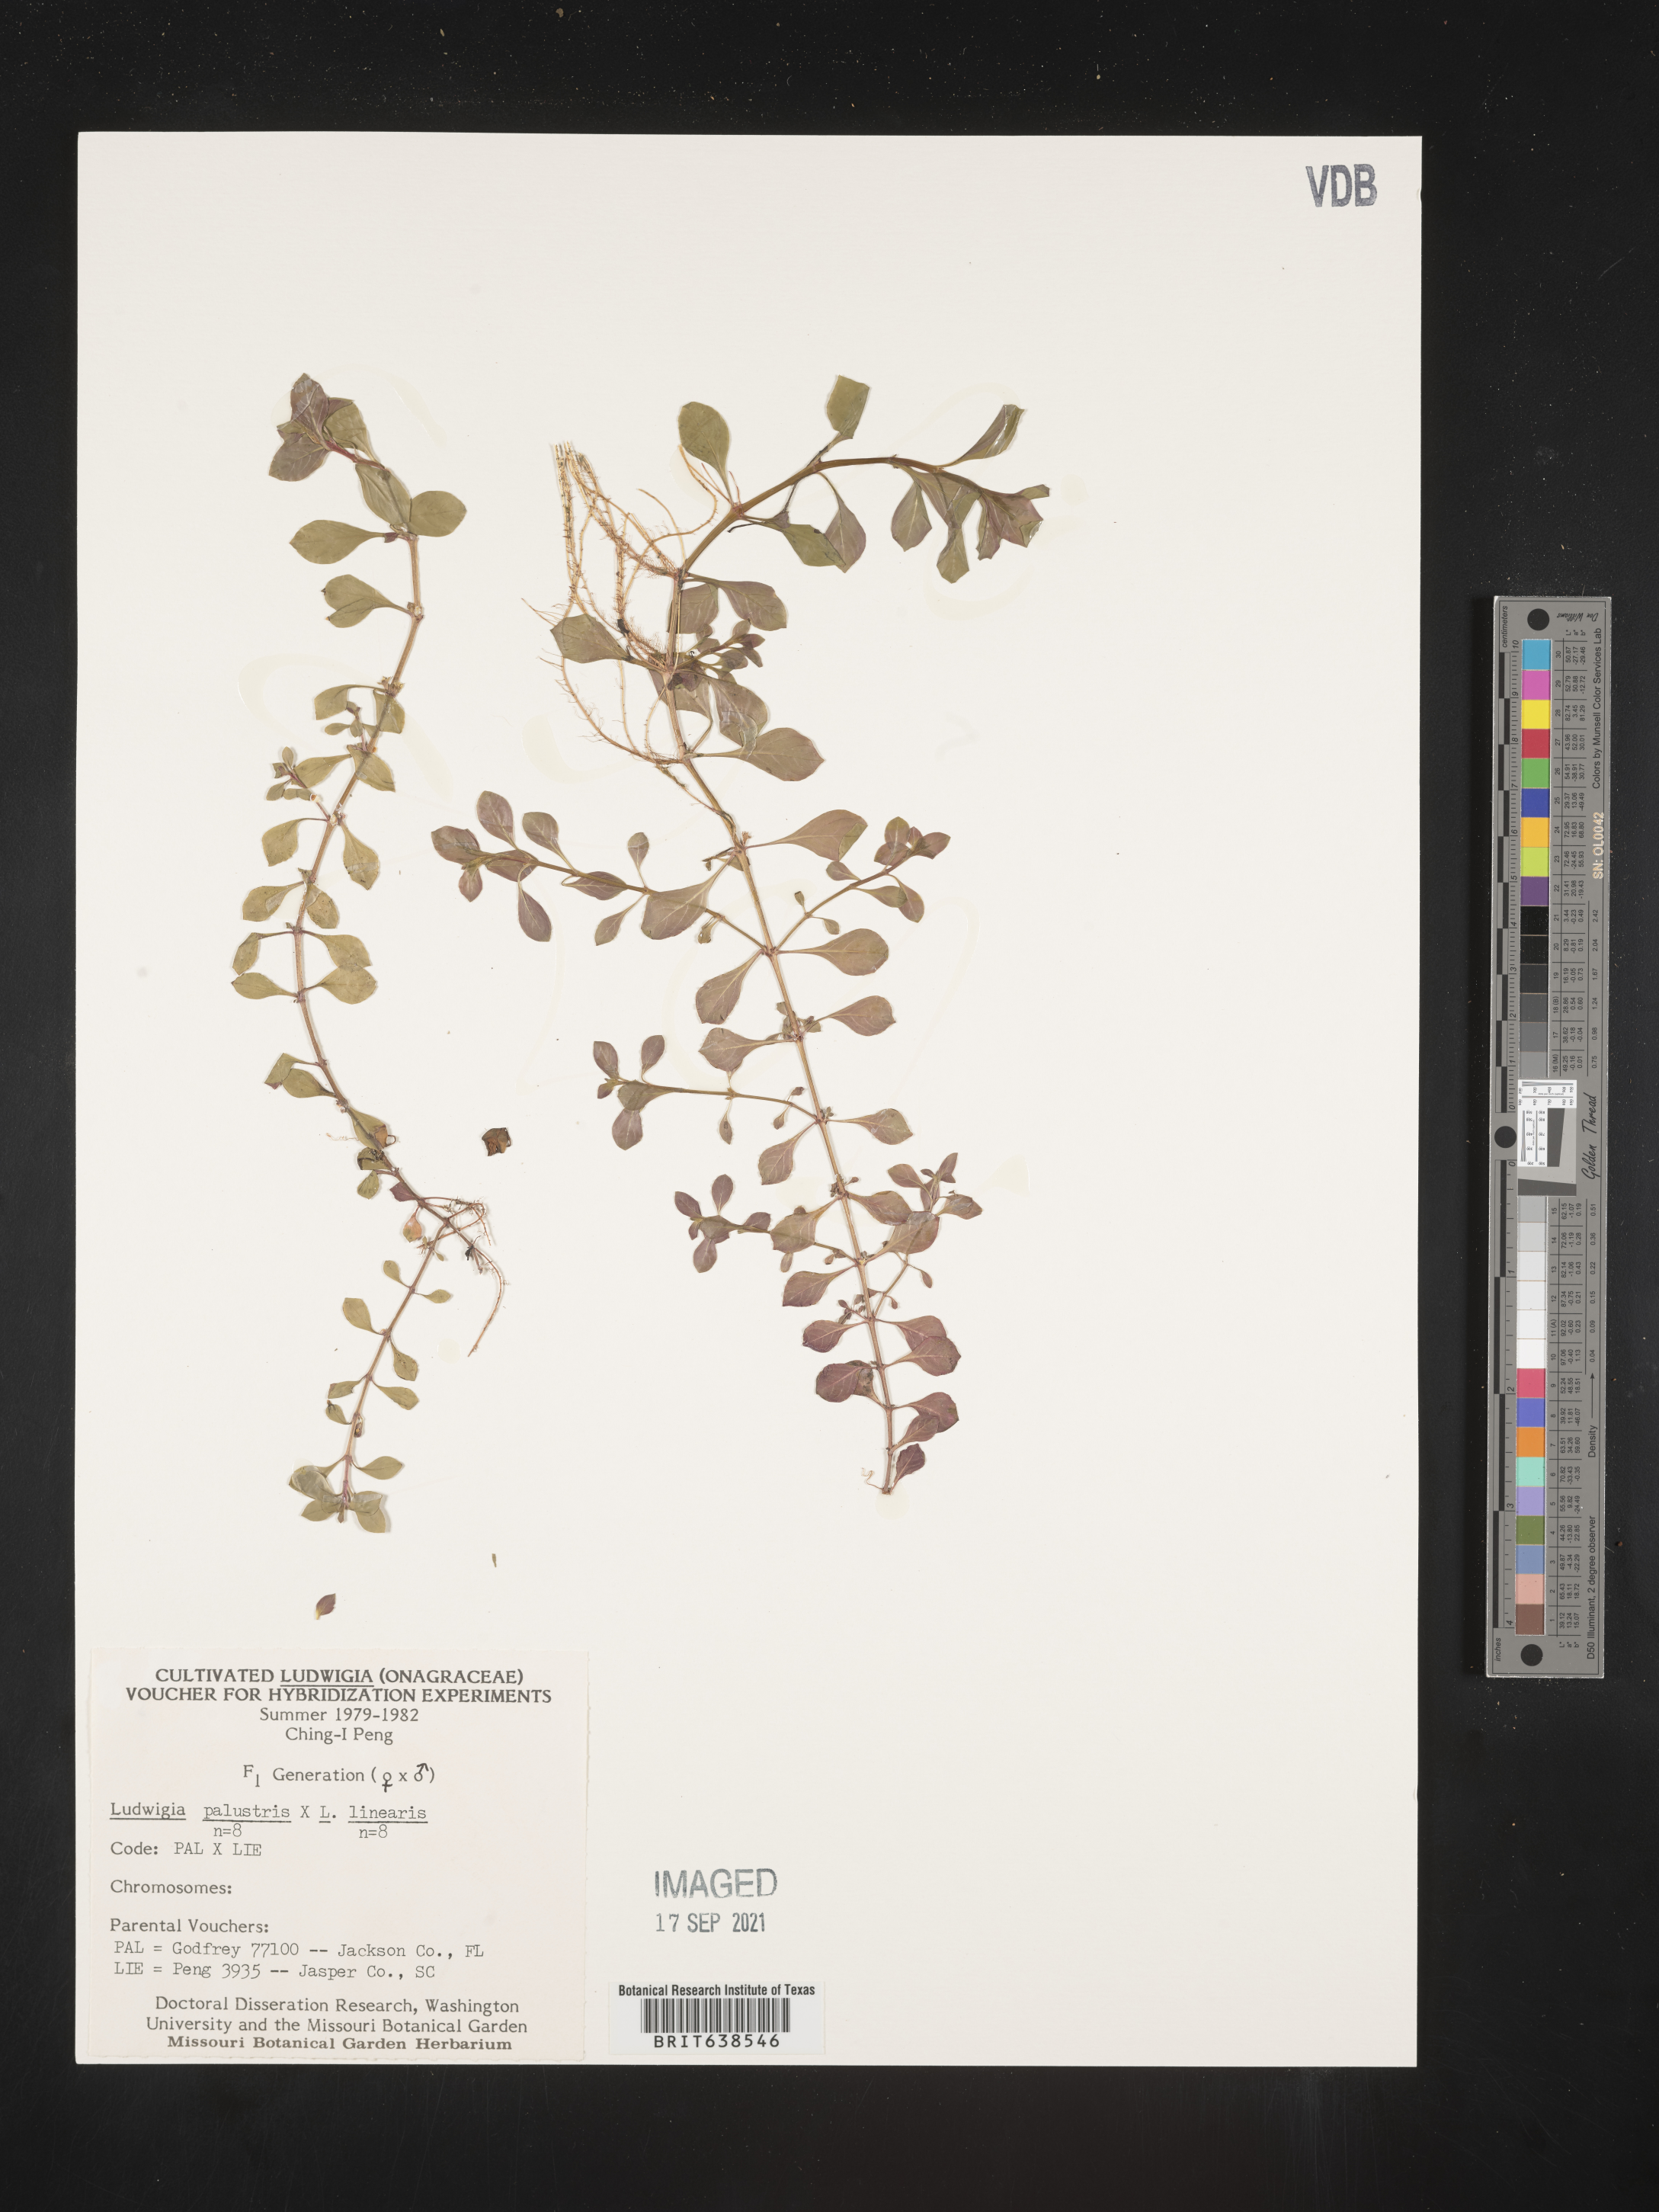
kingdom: Plantae
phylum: Tracheophyta
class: Magnoliopsida
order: Myrtales
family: Onagraceae
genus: Ludwigia
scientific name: Ludwigia
